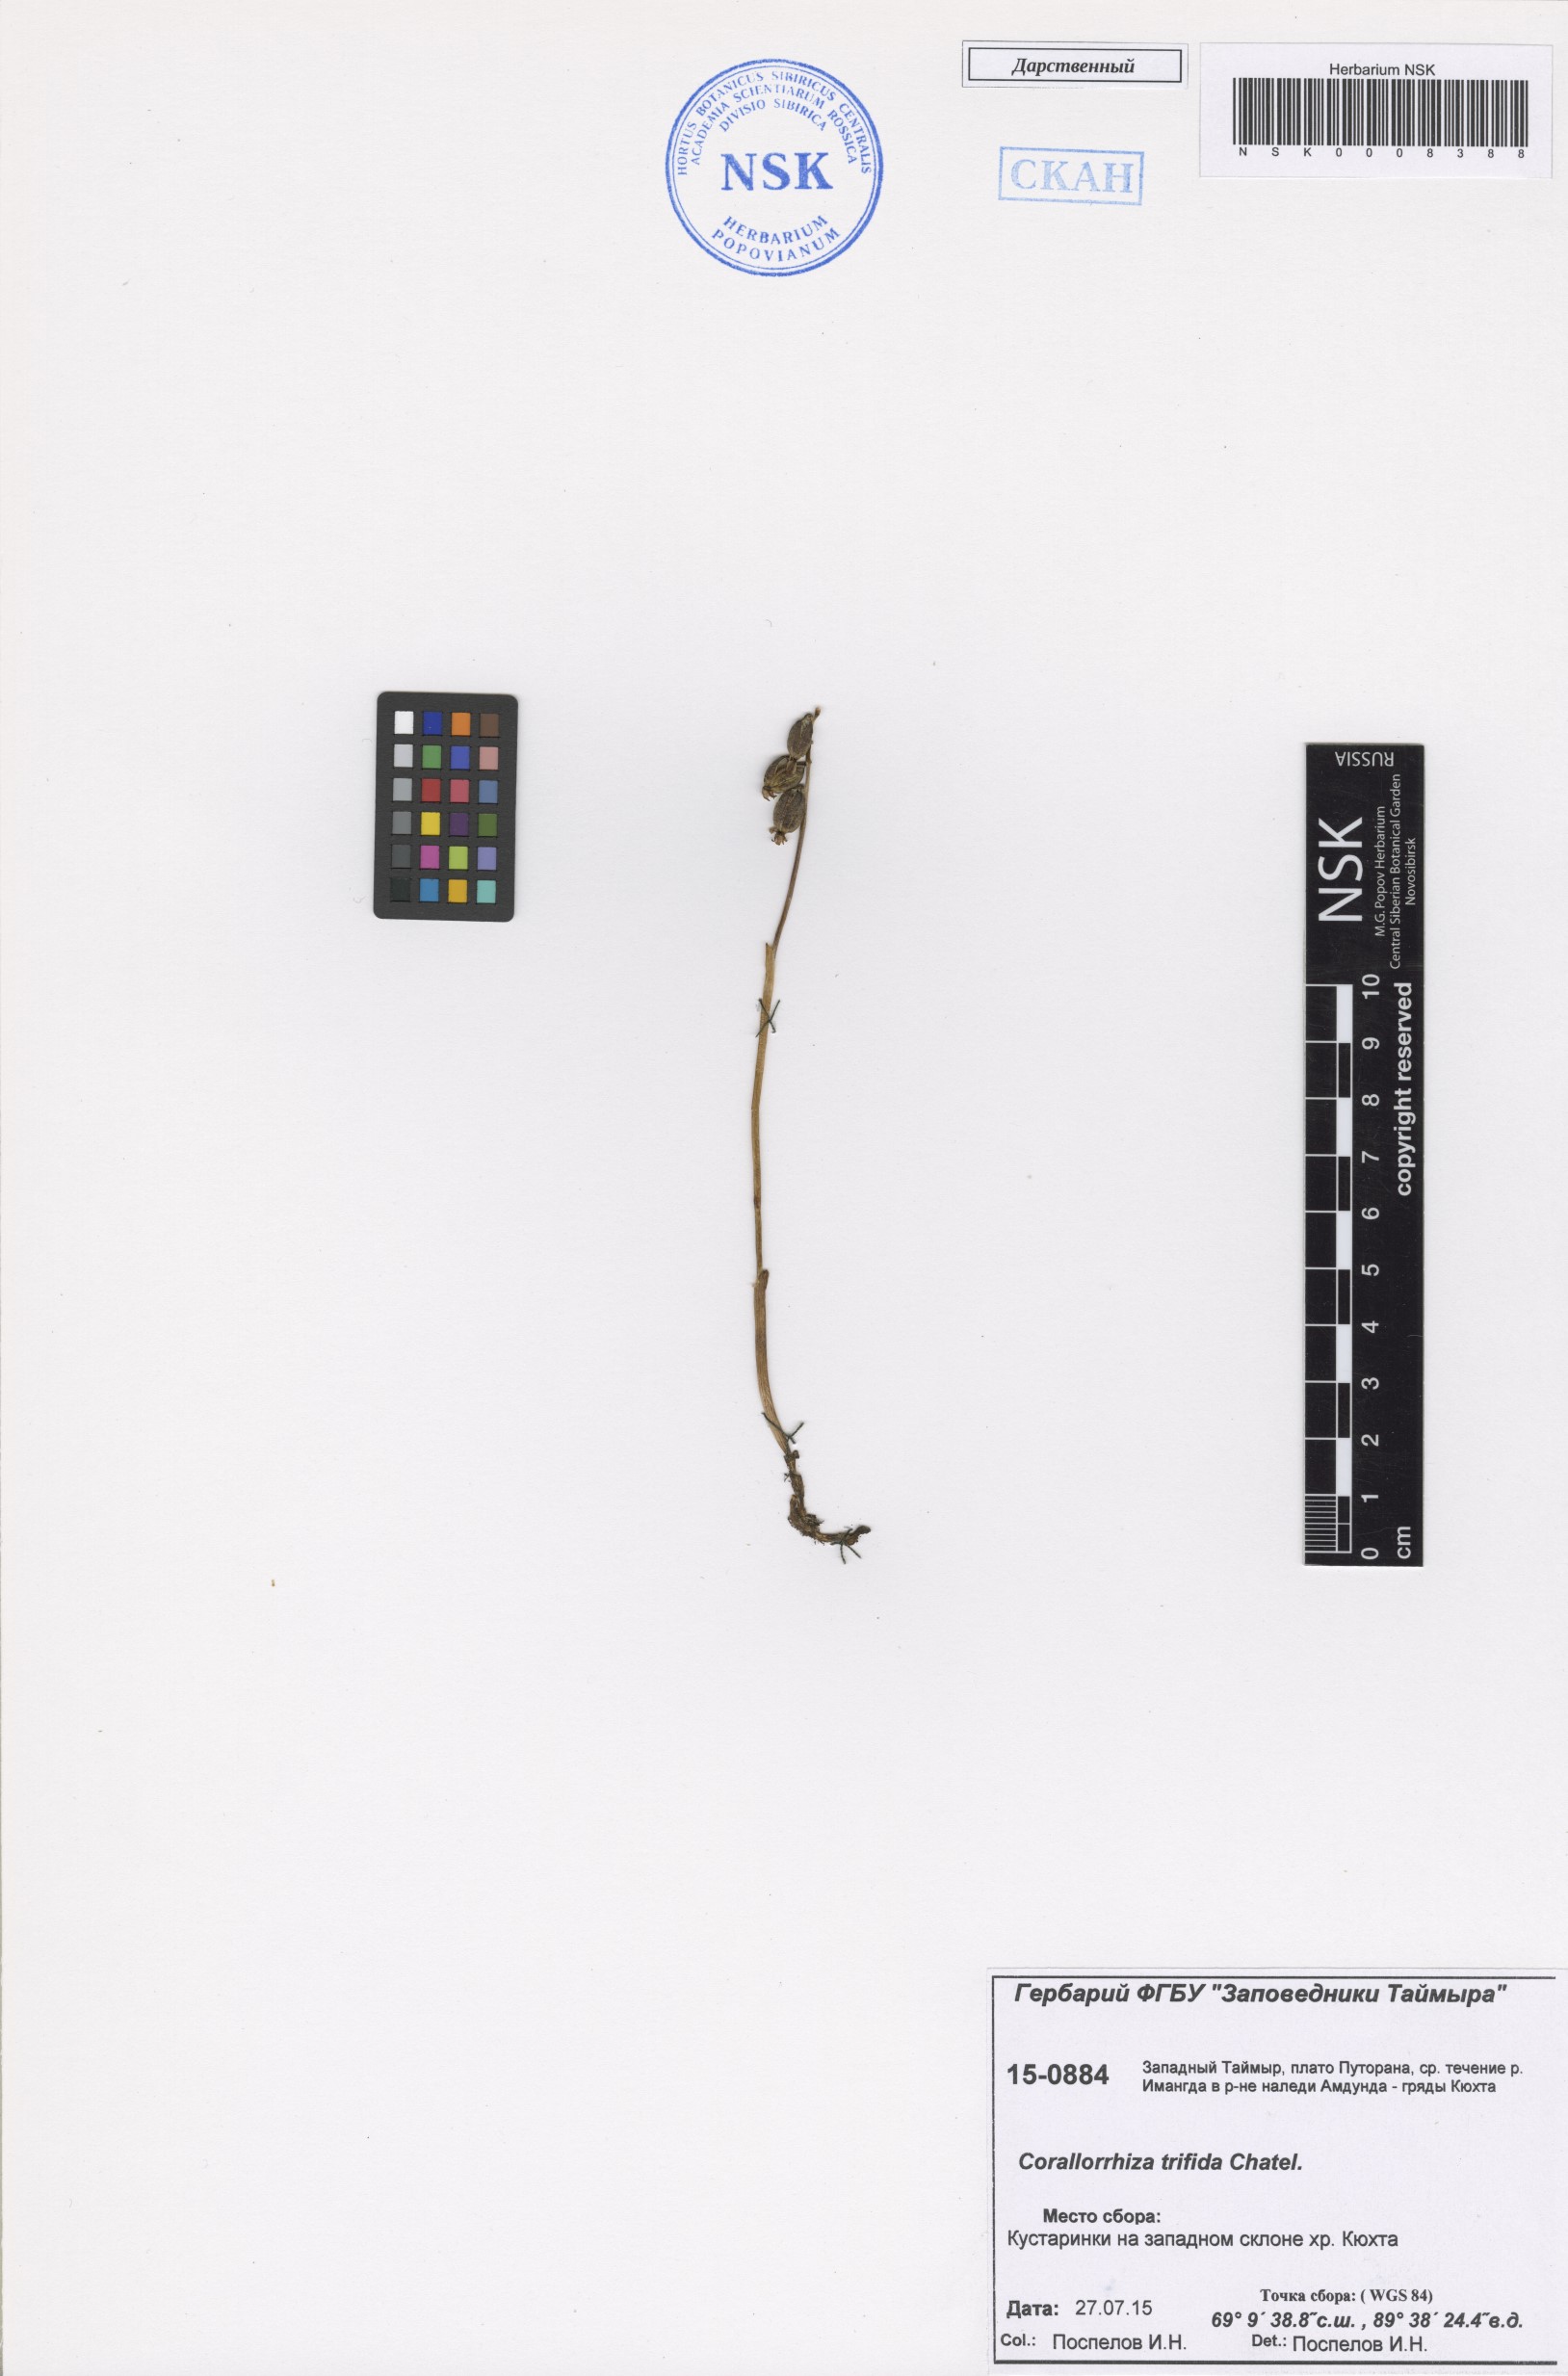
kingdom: Plantae
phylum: Tracheophyta
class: Liliopsida
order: Asparagales
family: Orchidaceae
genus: Corallorhiza
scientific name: Corallorhiza trifida
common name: Yellow coralroot
